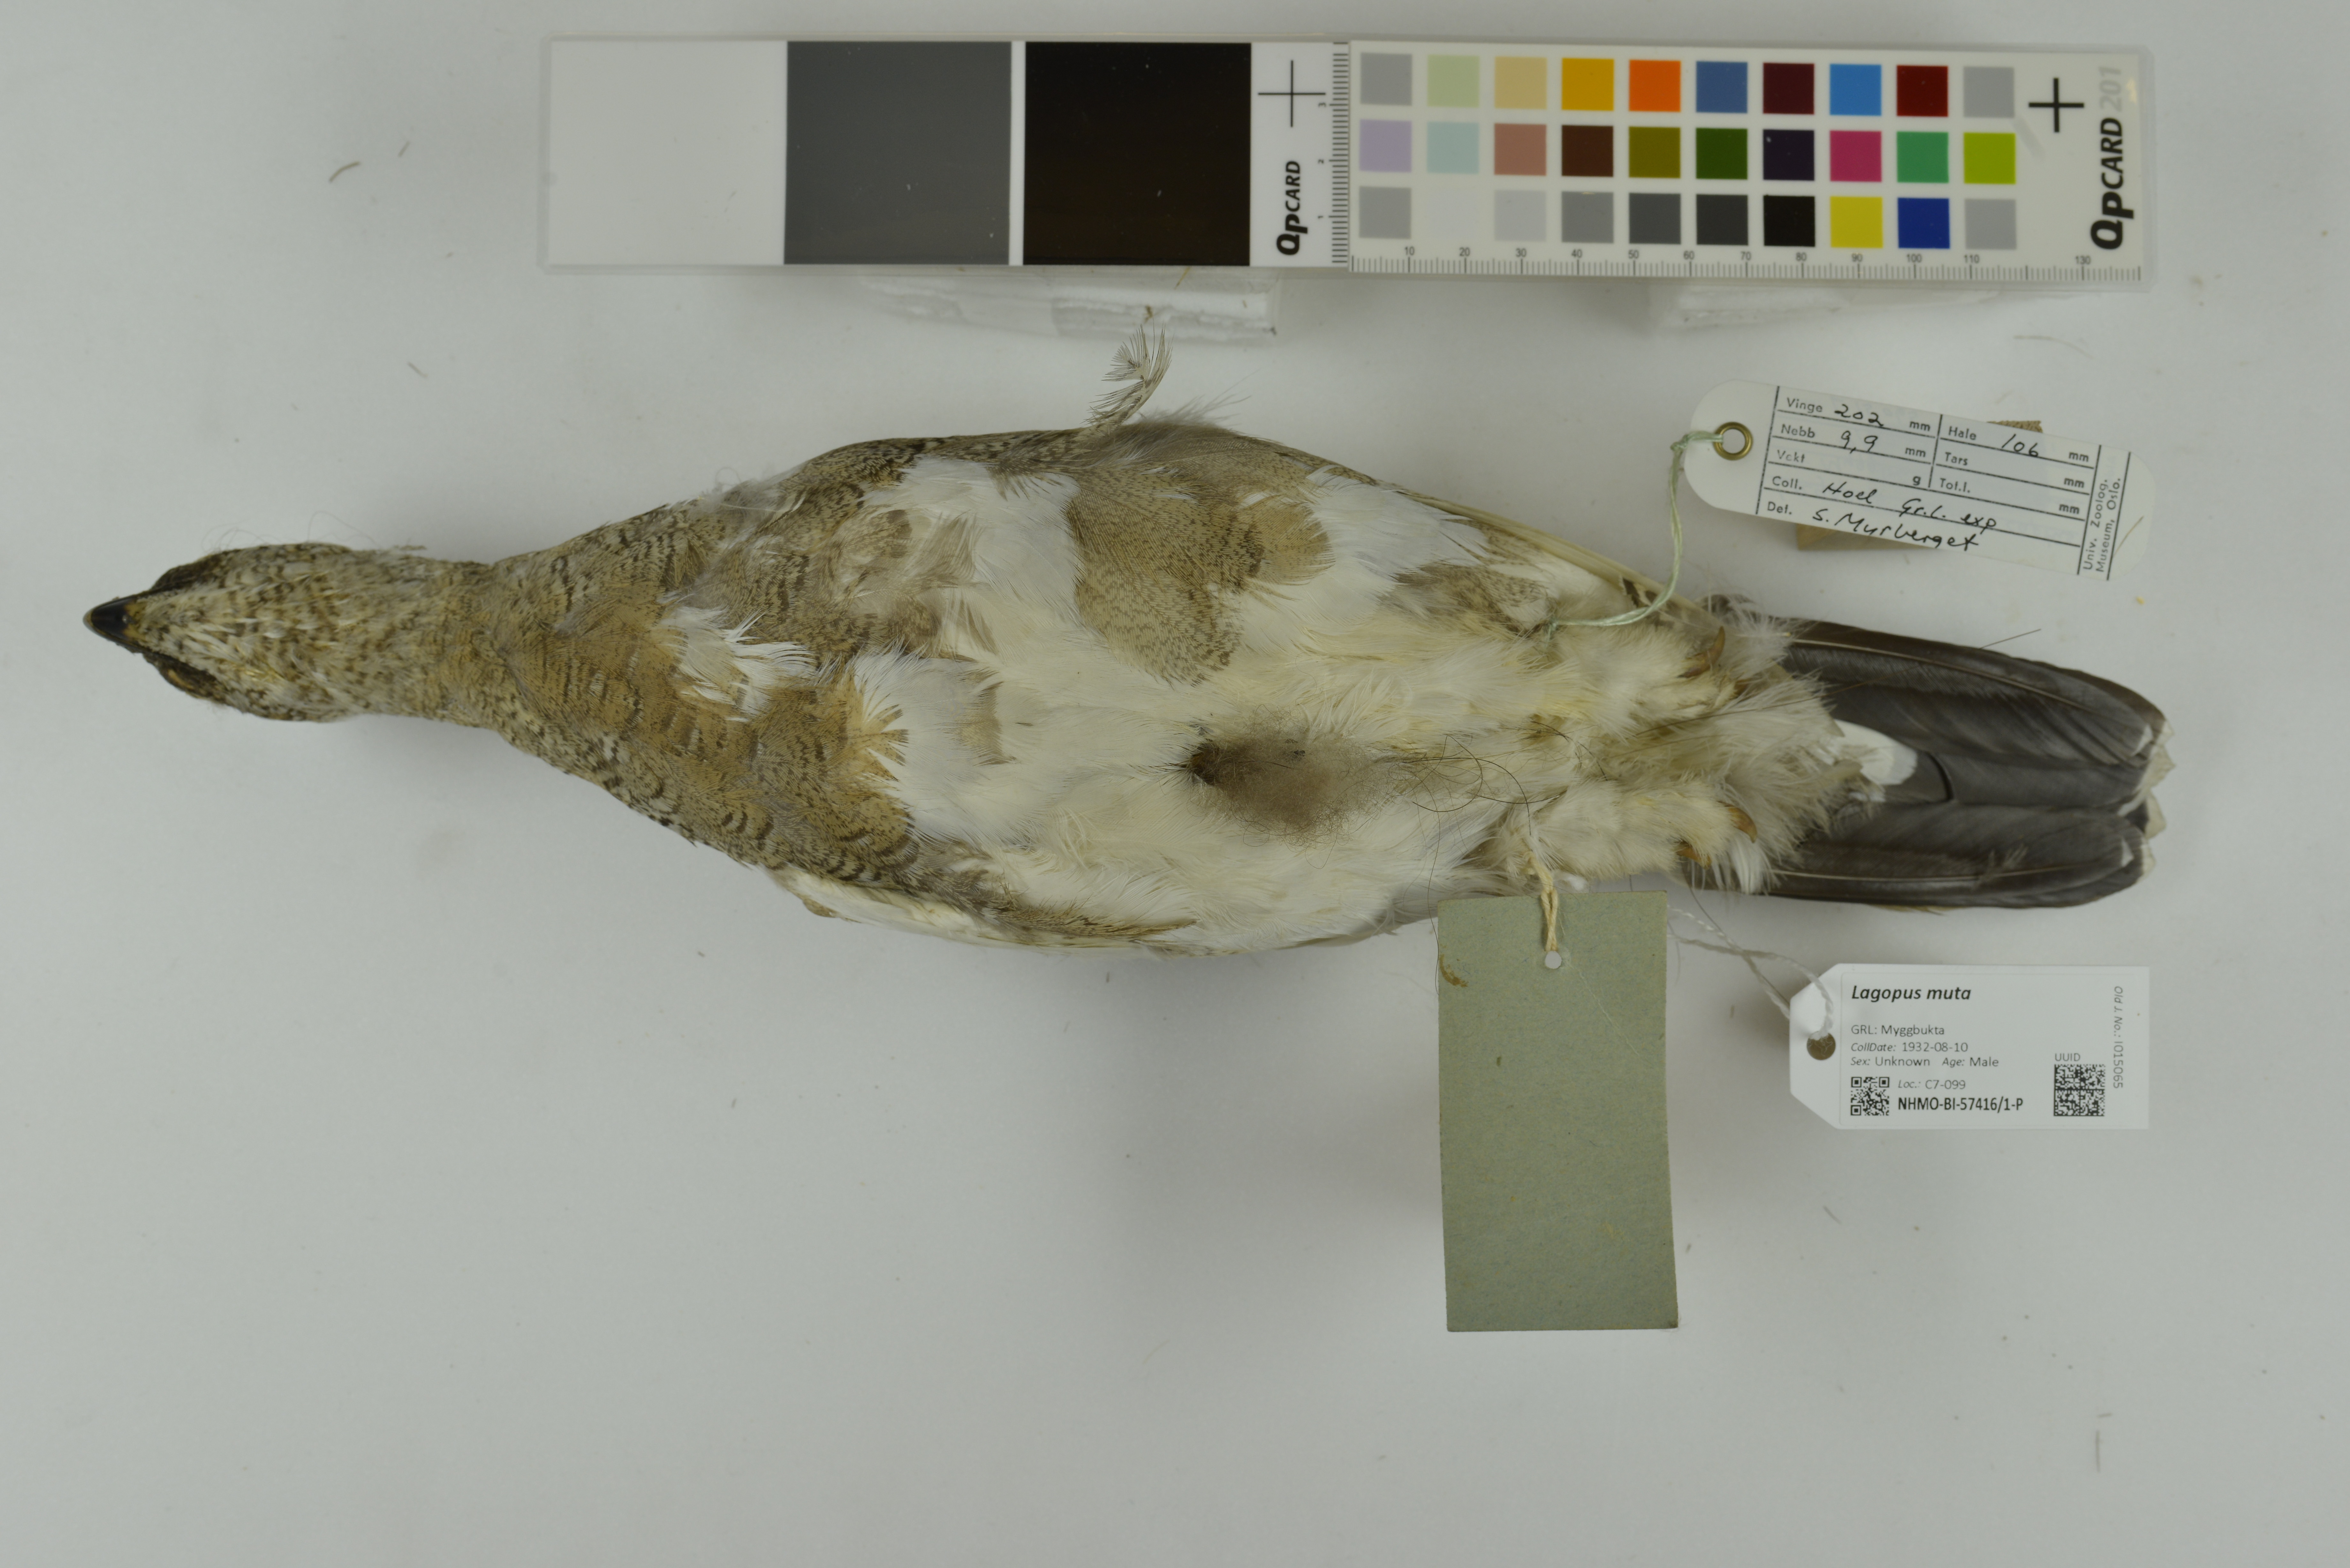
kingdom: Animalia
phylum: Chordata
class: Aves
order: Galliformes
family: Phasianidae
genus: Lagopus
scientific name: Lagopus muta
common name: Rock ptarmigan
